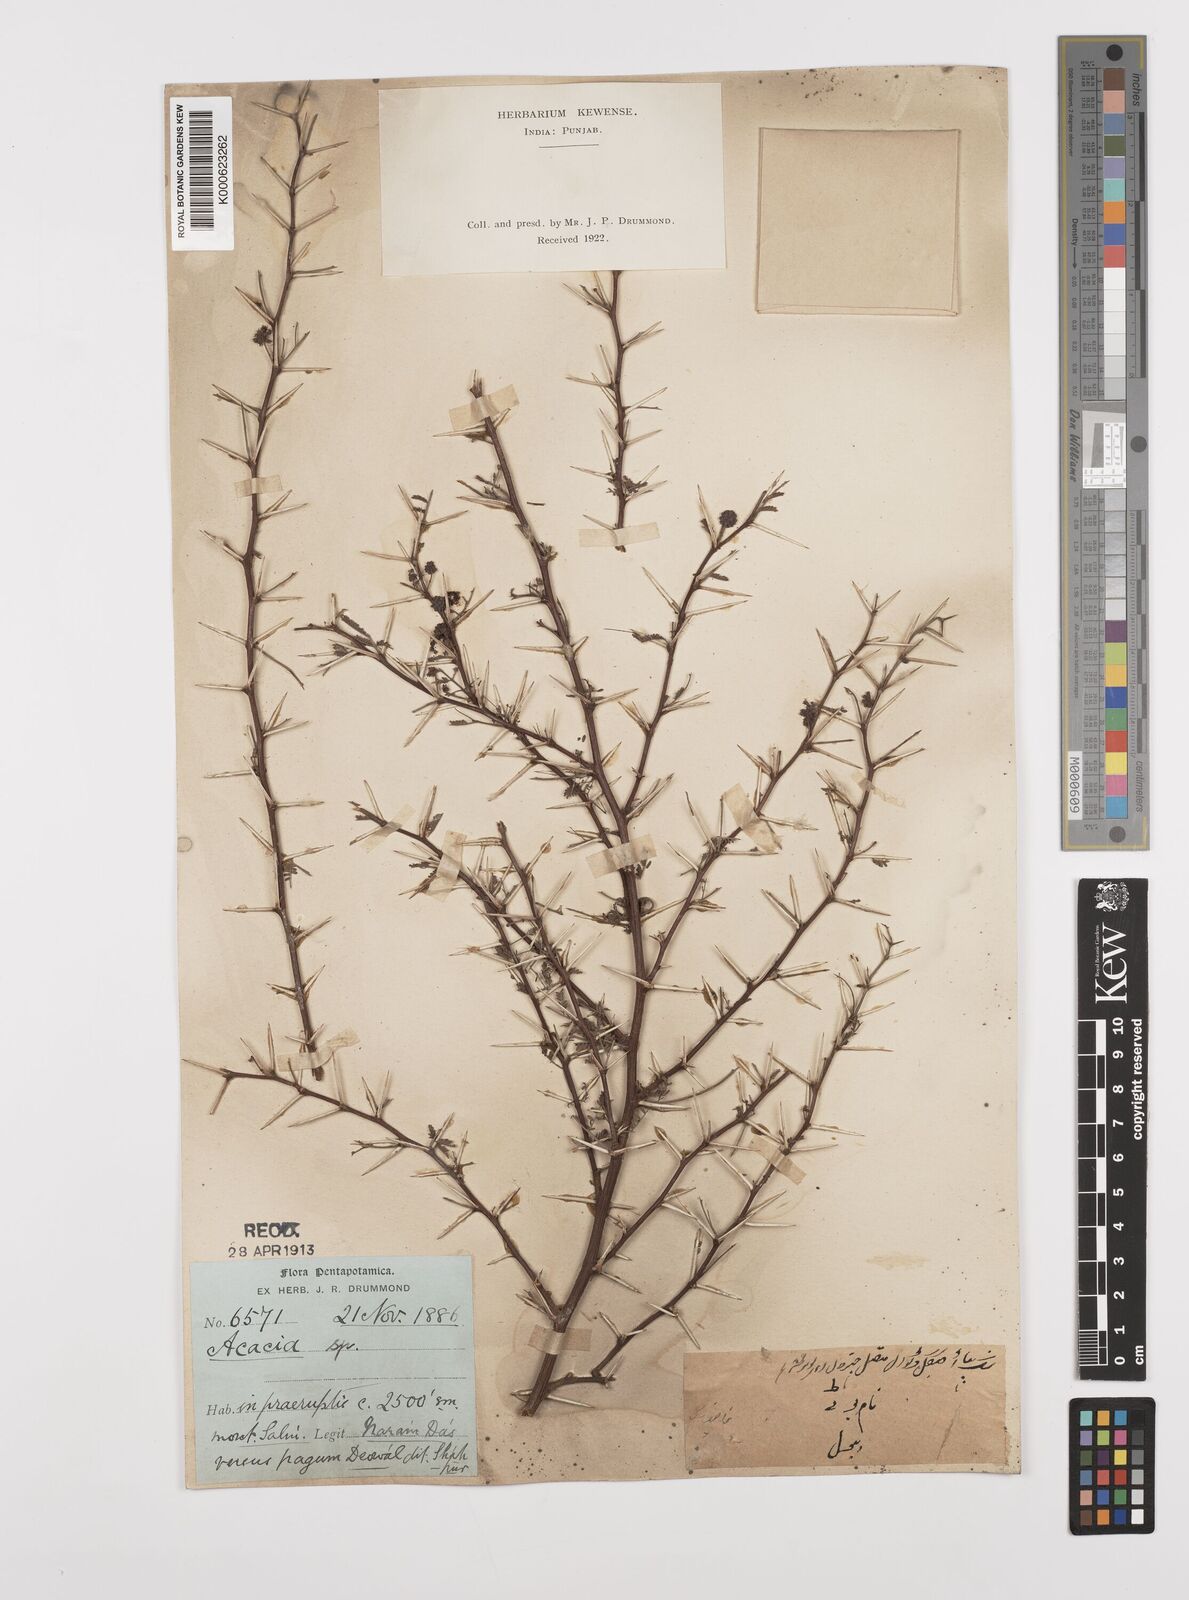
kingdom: Plantae
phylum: Tracheophyta
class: Magnoliopsida
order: Fabales
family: Fabaceae
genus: Vachellia
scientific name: Vachellia hydaspica
